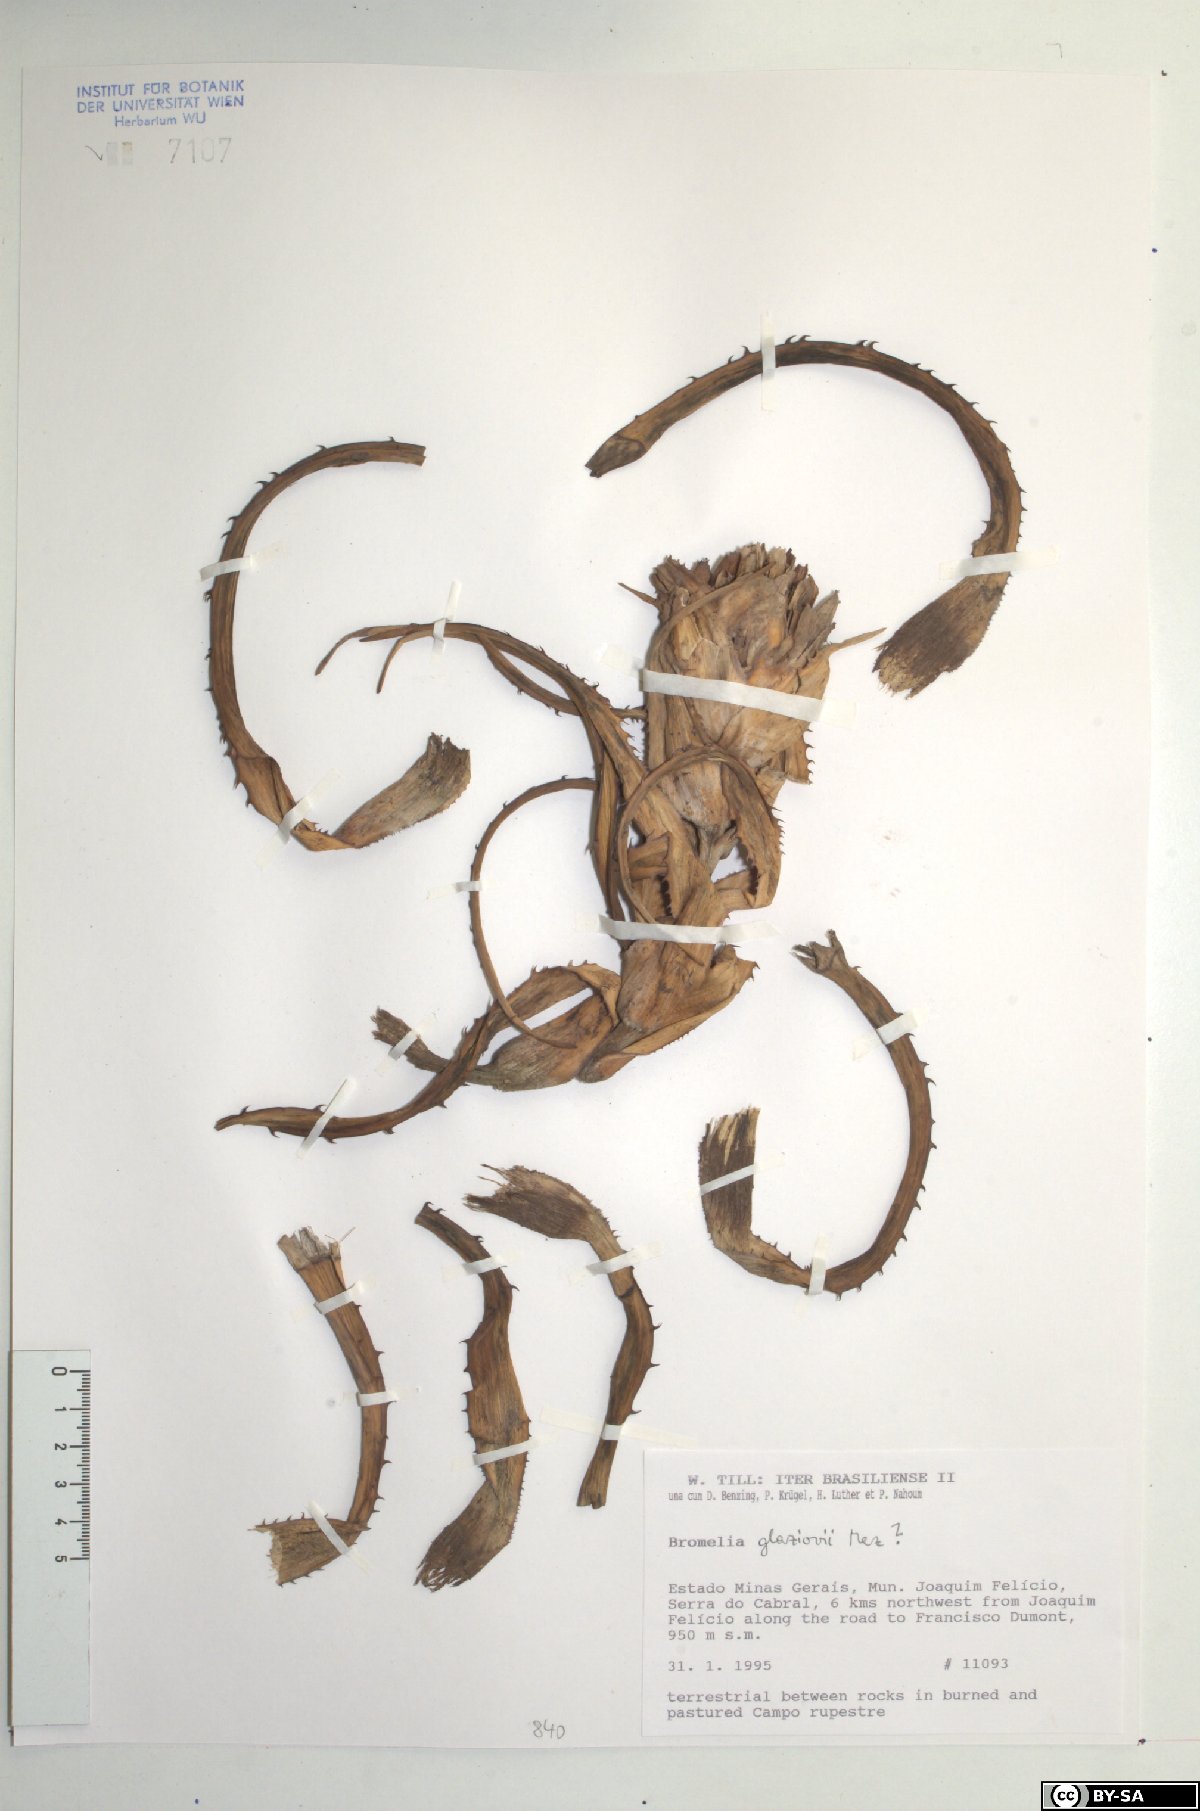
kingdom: Plantae
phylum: Tracheophyta
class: Liliopsida
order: Poales
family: Bromeliaceae
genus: Bromelia
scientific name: Bromelia glaziovii
